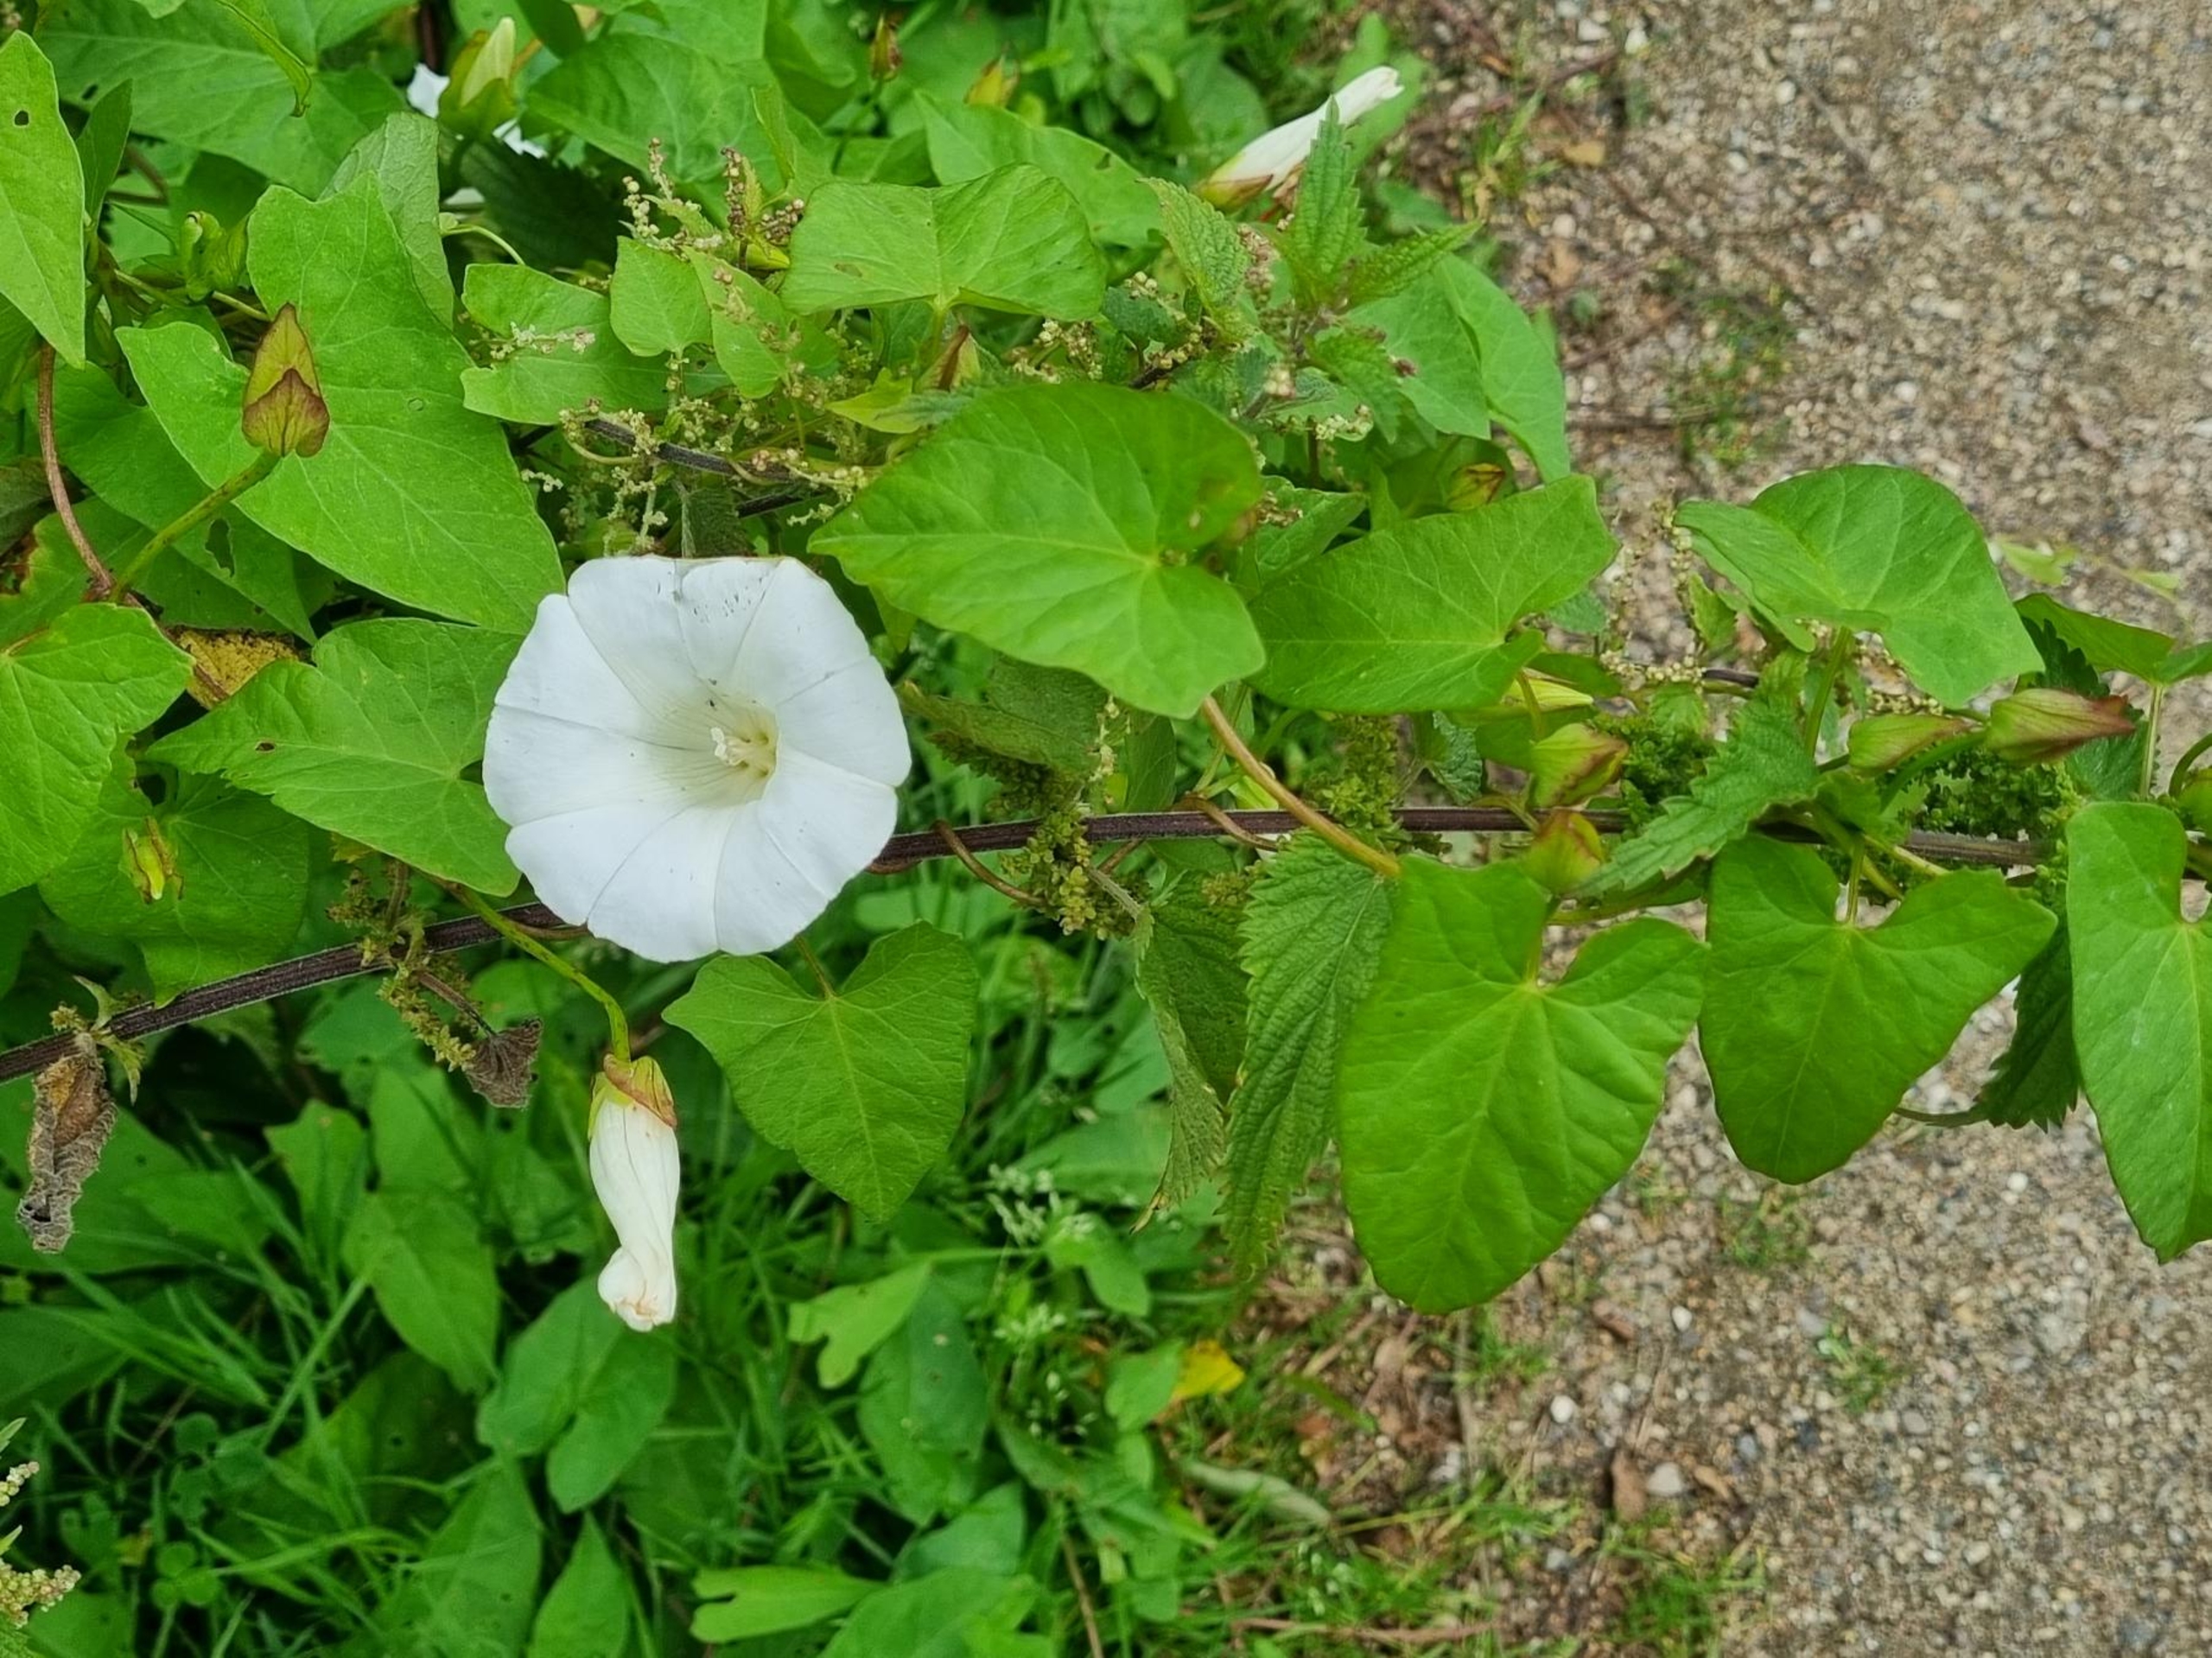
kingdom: Plantae
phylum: Tracheophyta
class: Magnoliopsida
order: Solanales
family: Convolvulaceae
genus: Calystegia
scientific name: Calystegia sepium
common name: Gærde-snerle
